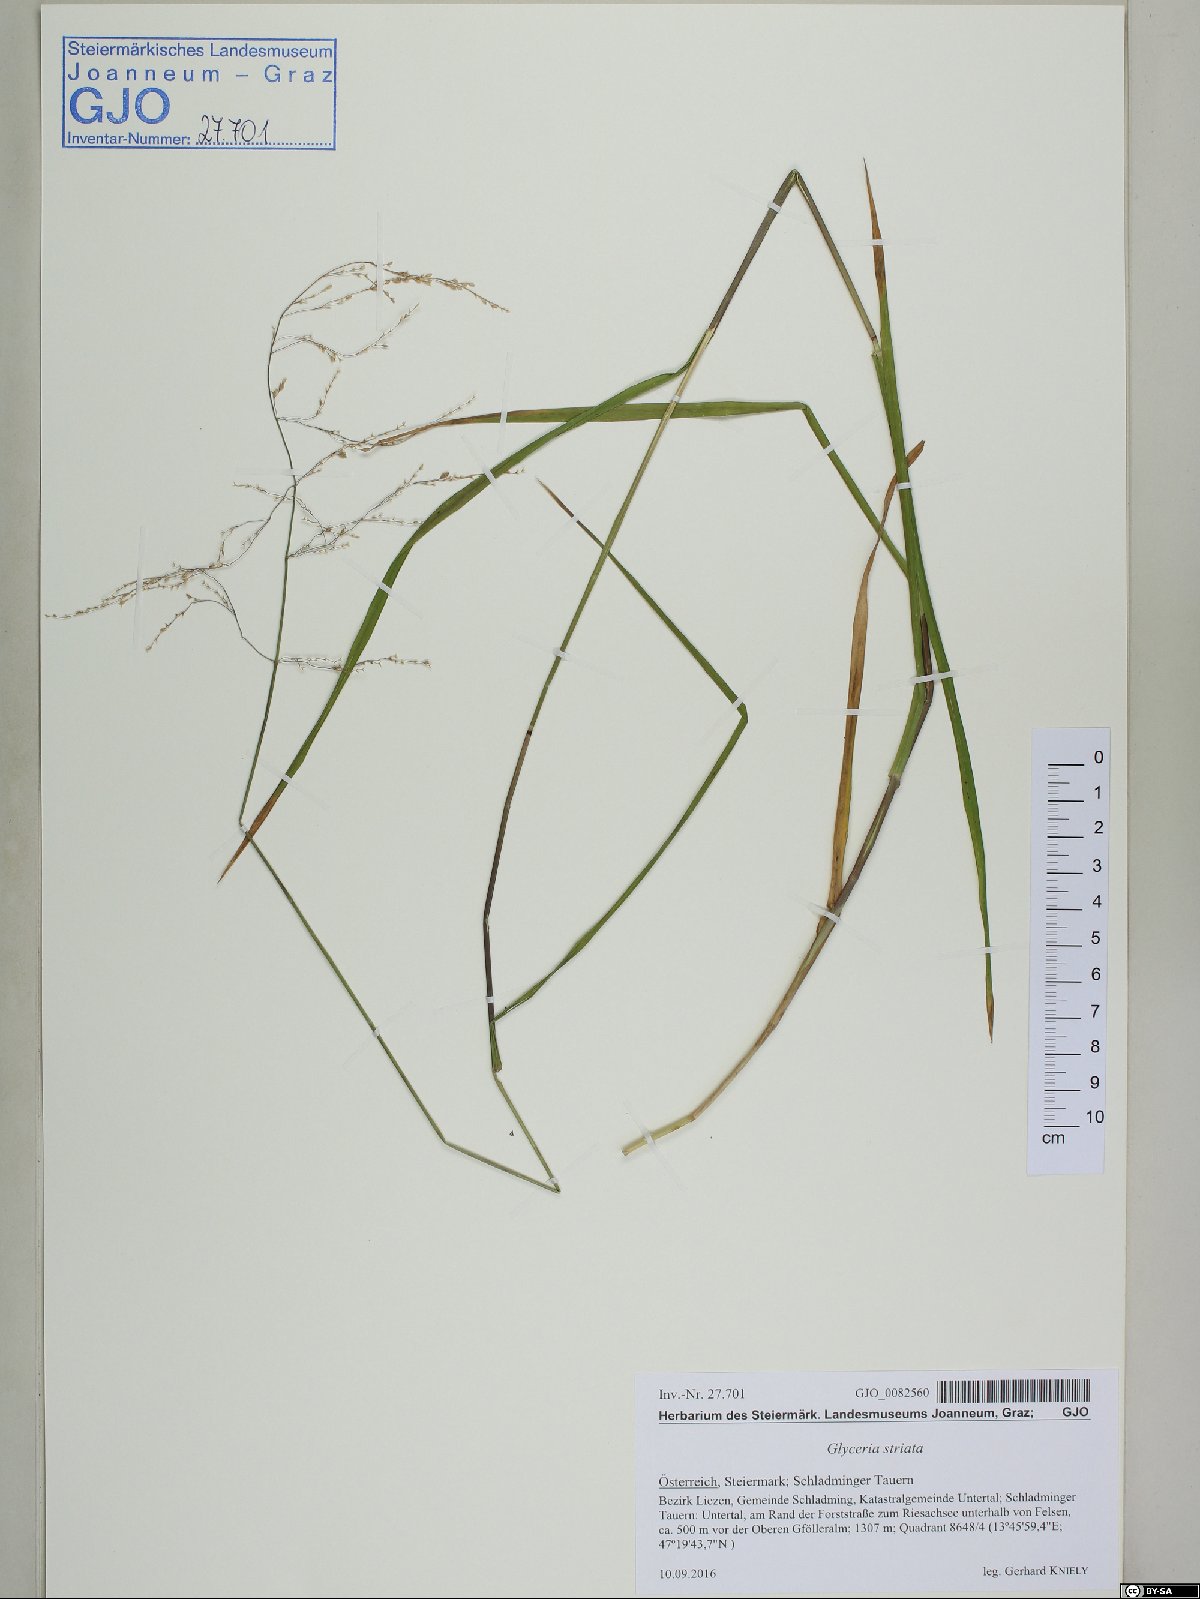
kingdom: Plantae
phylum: Tracheophyta
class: Liliopsida
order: Poales
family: Poaceae
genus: Glyceria
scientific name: Glyceria striata
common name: Fowl manna grass
